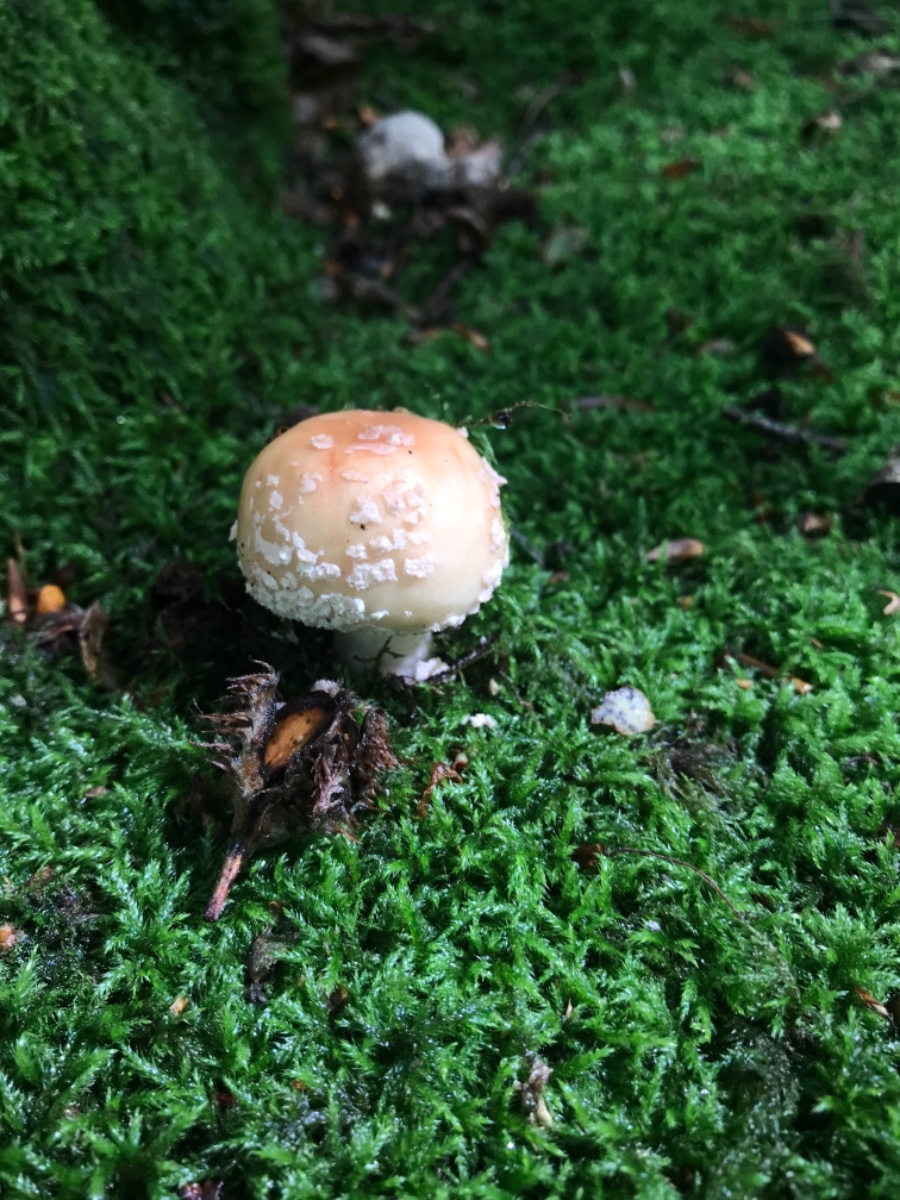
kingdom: Fungi
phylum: Basidiomycota
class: Agaricomycetes
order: Agaricales
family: Amanitaceae
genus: Amanita
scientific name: Amanita rubescens
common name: rødmende fluesvamp
